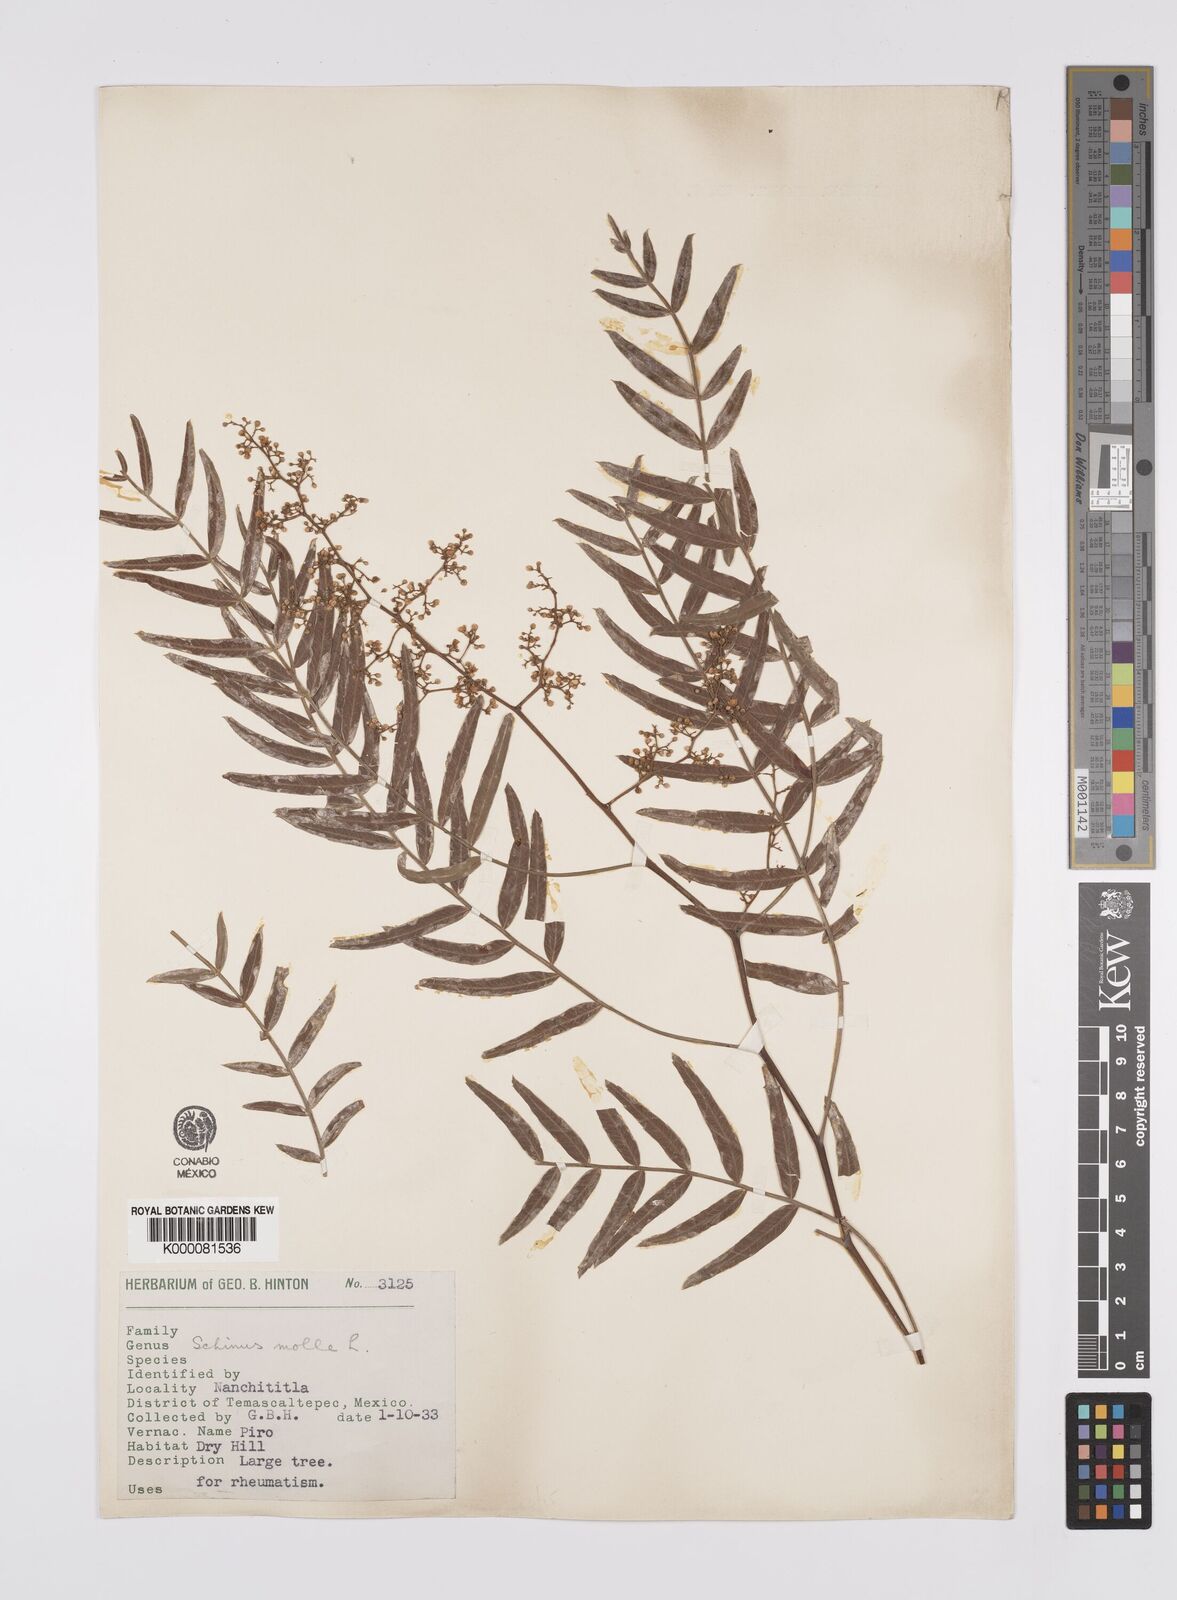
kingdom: Plantae
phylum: Tracheophyta
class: Magnoliopsida
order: Sapindales
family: Anacardiaceae
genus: Schinus
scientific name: Schinus molle
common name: Peruvian peppertree
